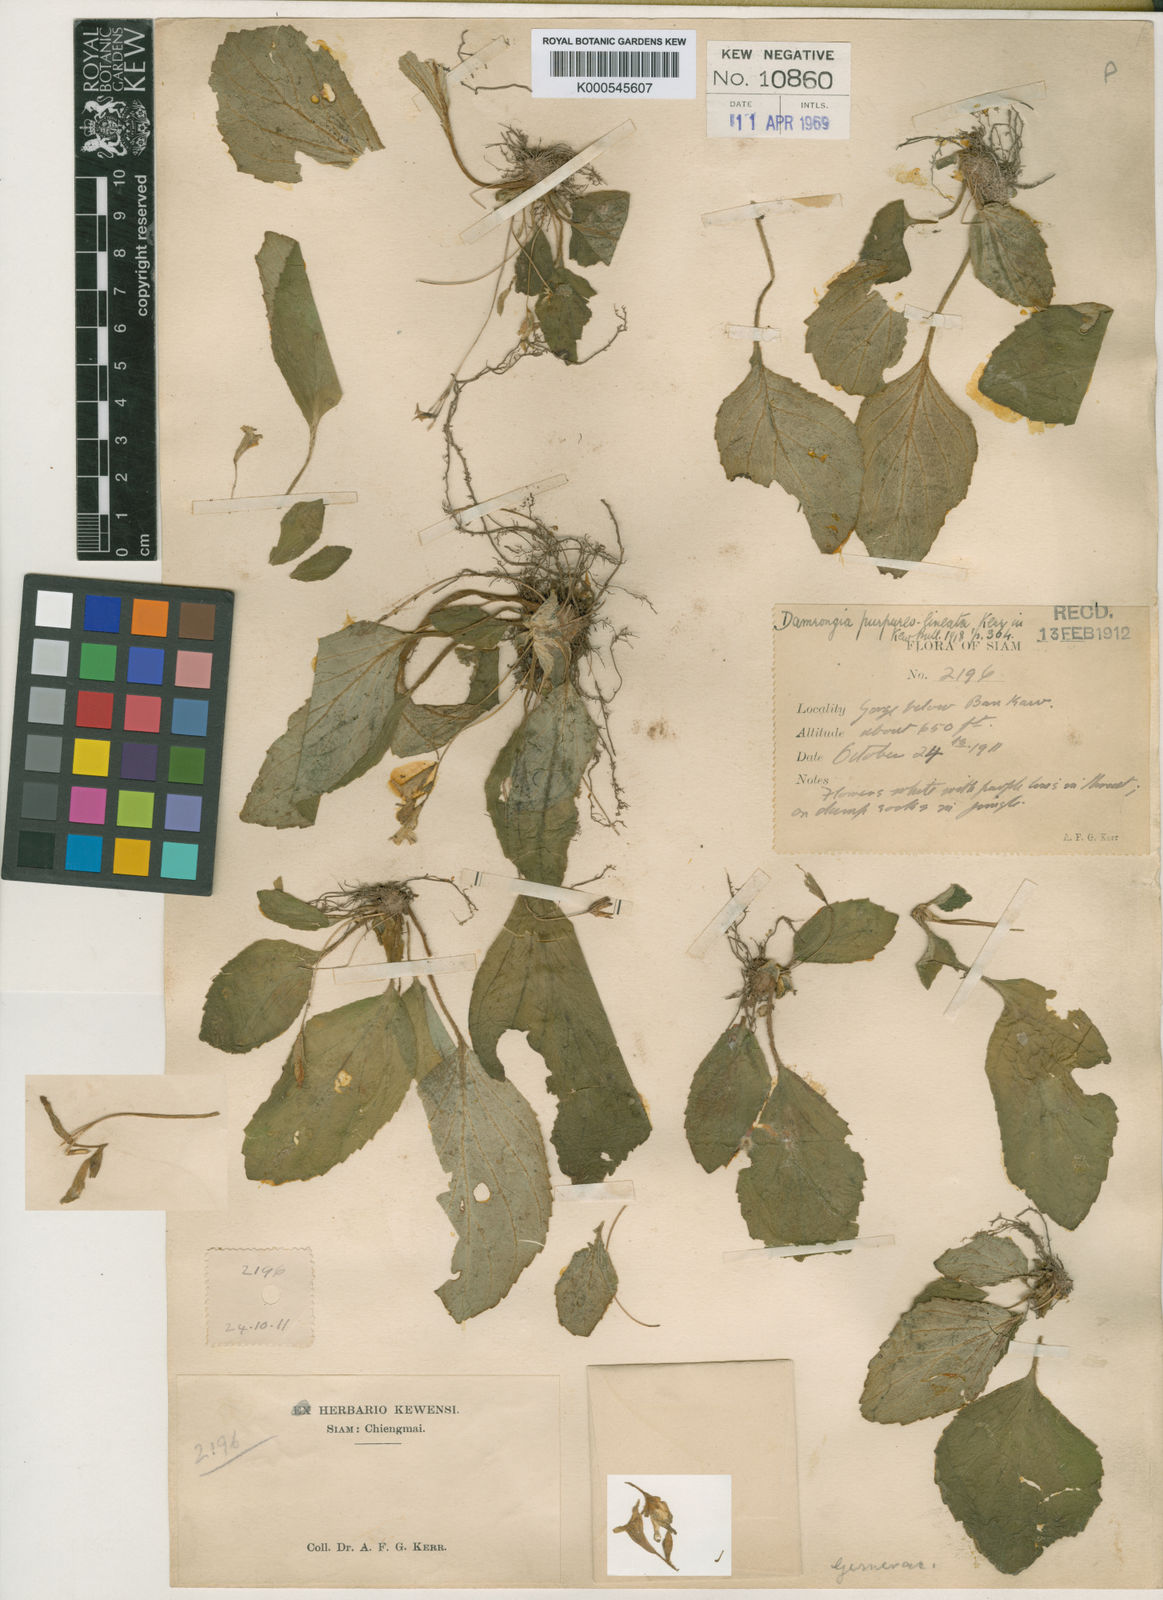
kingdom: Plantae
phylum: Tracheophyta
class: Magnoliopsida
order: Lamiales
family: Gesneriaceae
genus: Damrongia
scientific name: Damrongia purpureolineata
